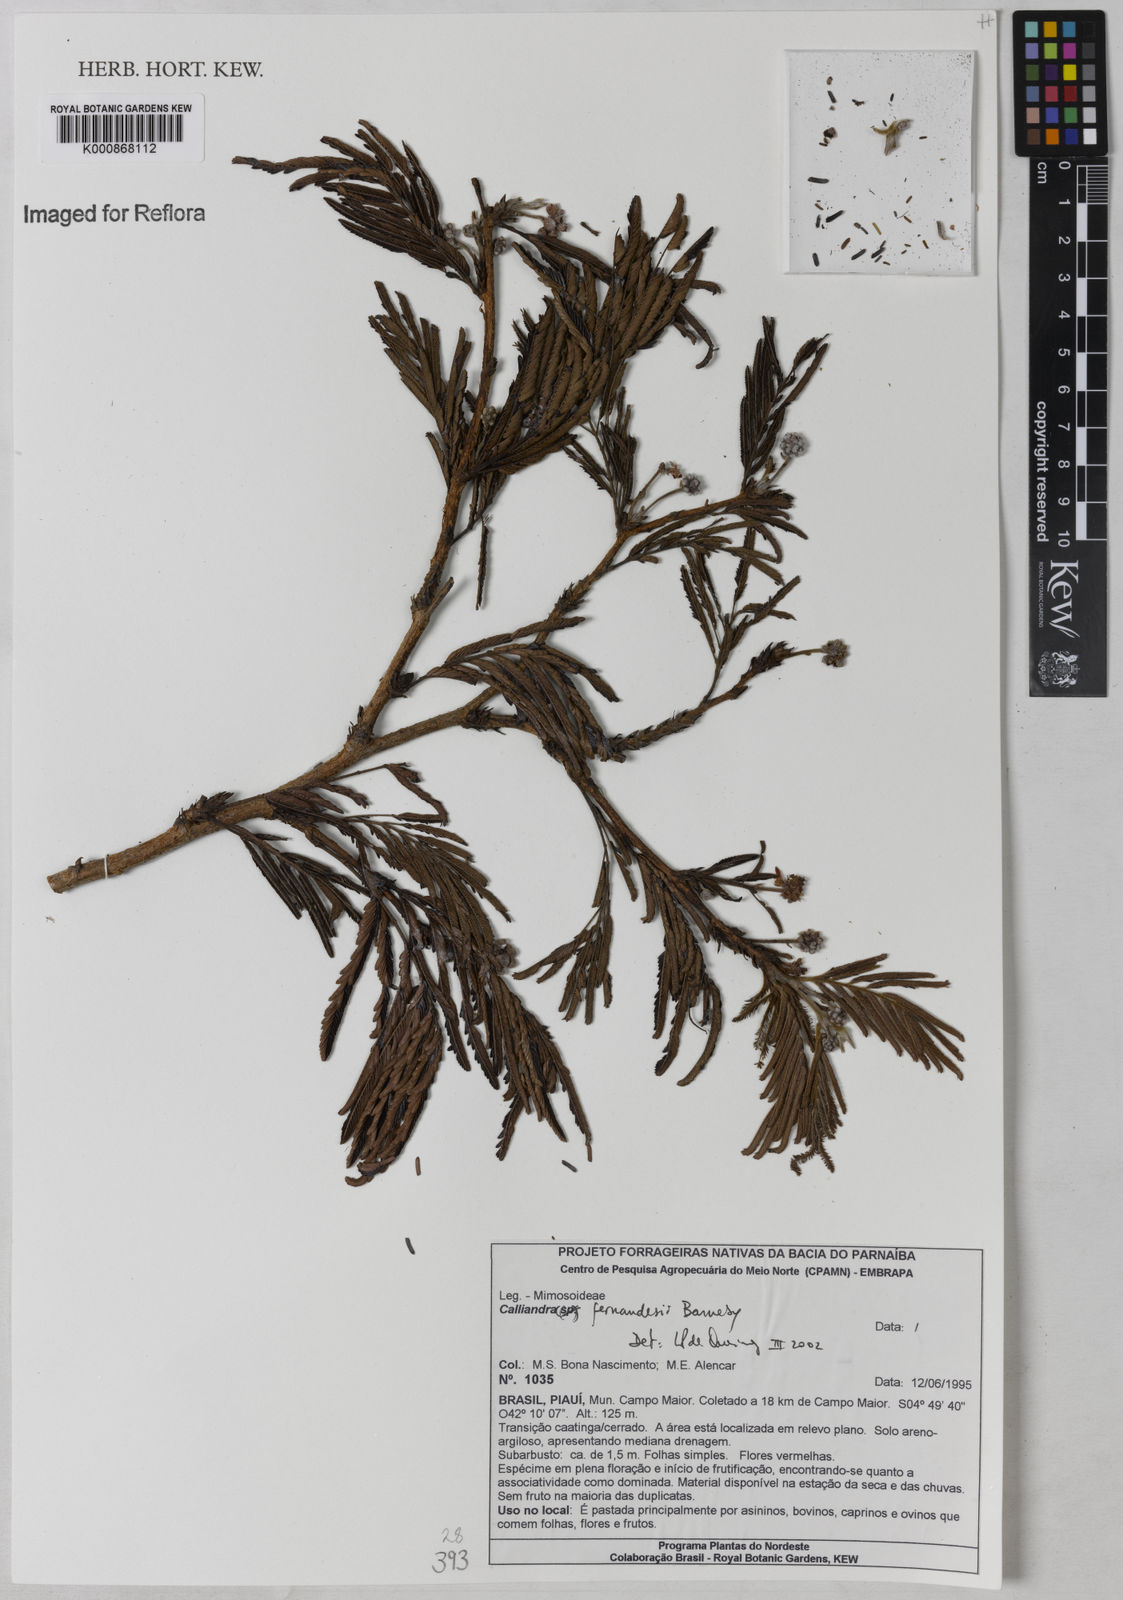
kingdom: Plantae
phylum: Tracheophyta
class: Magnoliopsida
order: Fabales
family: Fabaceae
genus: Calliandra
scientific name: Calliandra fernandesii
